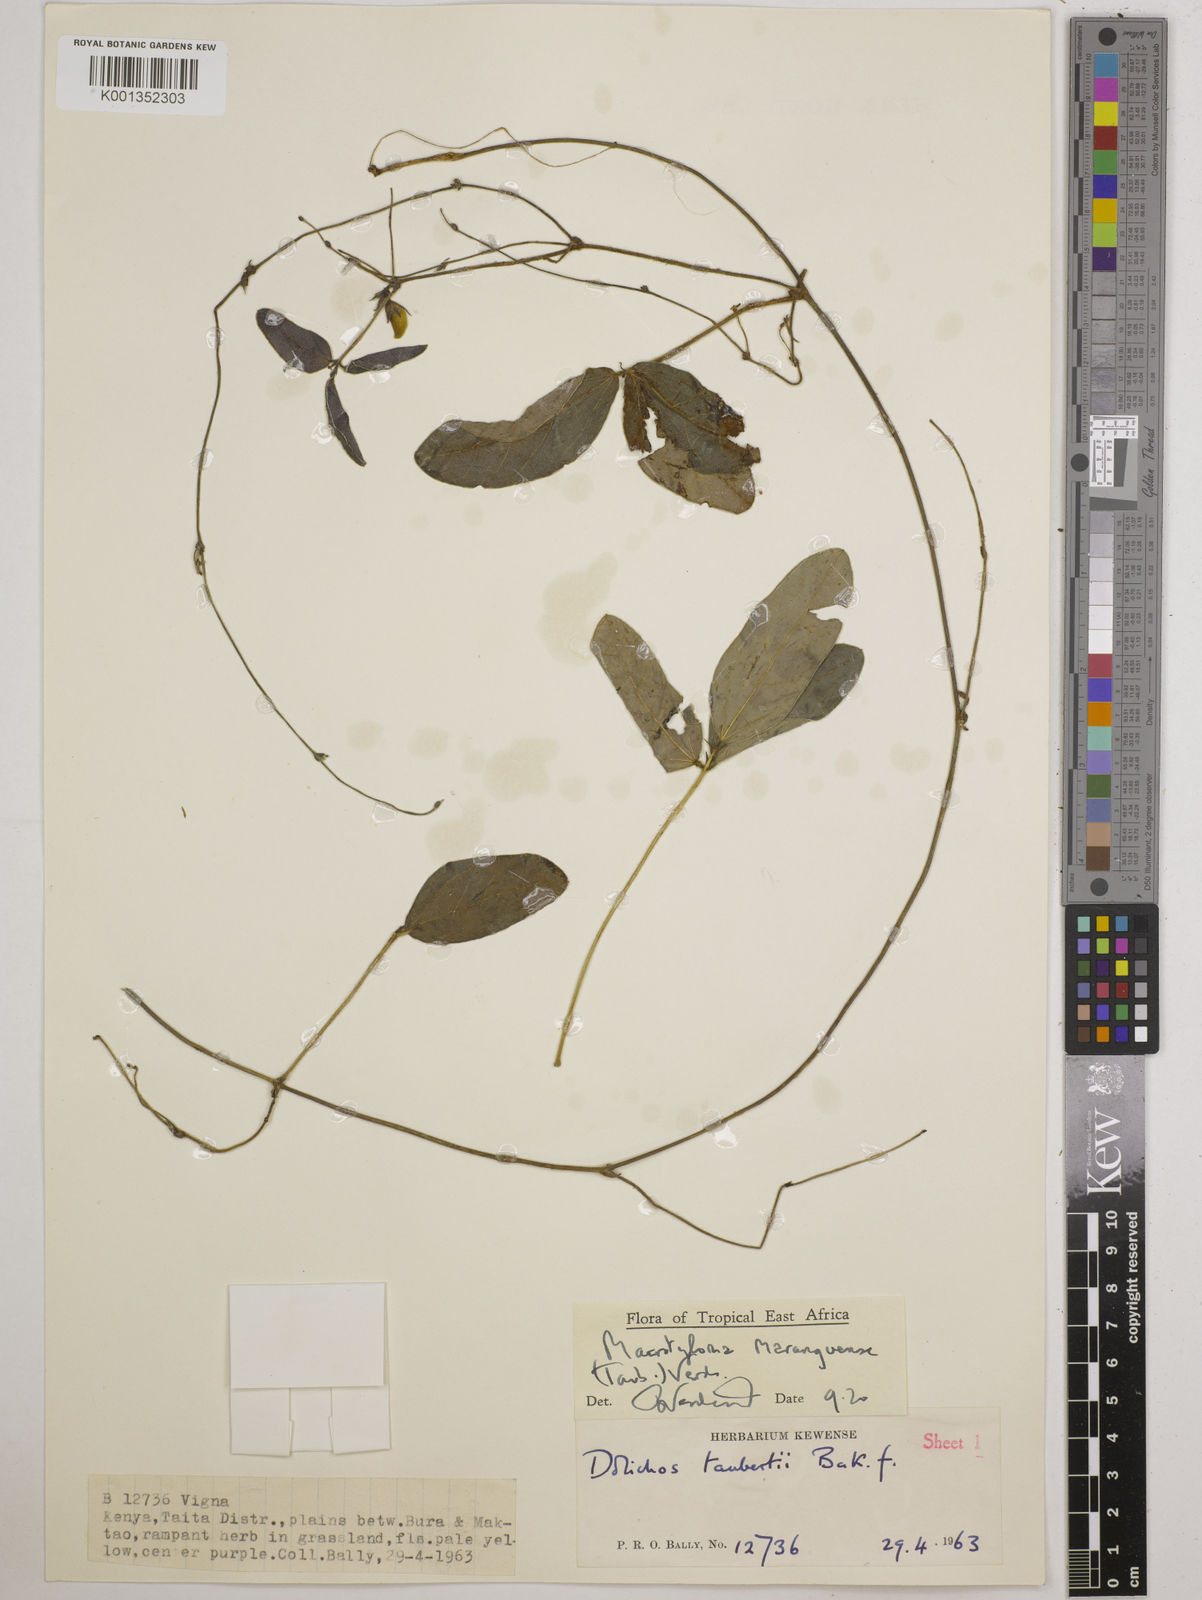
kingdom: Plantae
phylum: Tracheophyta
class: Magnoliopsida
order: Fabales
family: Fabaceae
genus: Macrotyloma
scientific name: Macrotyloma maranguense
